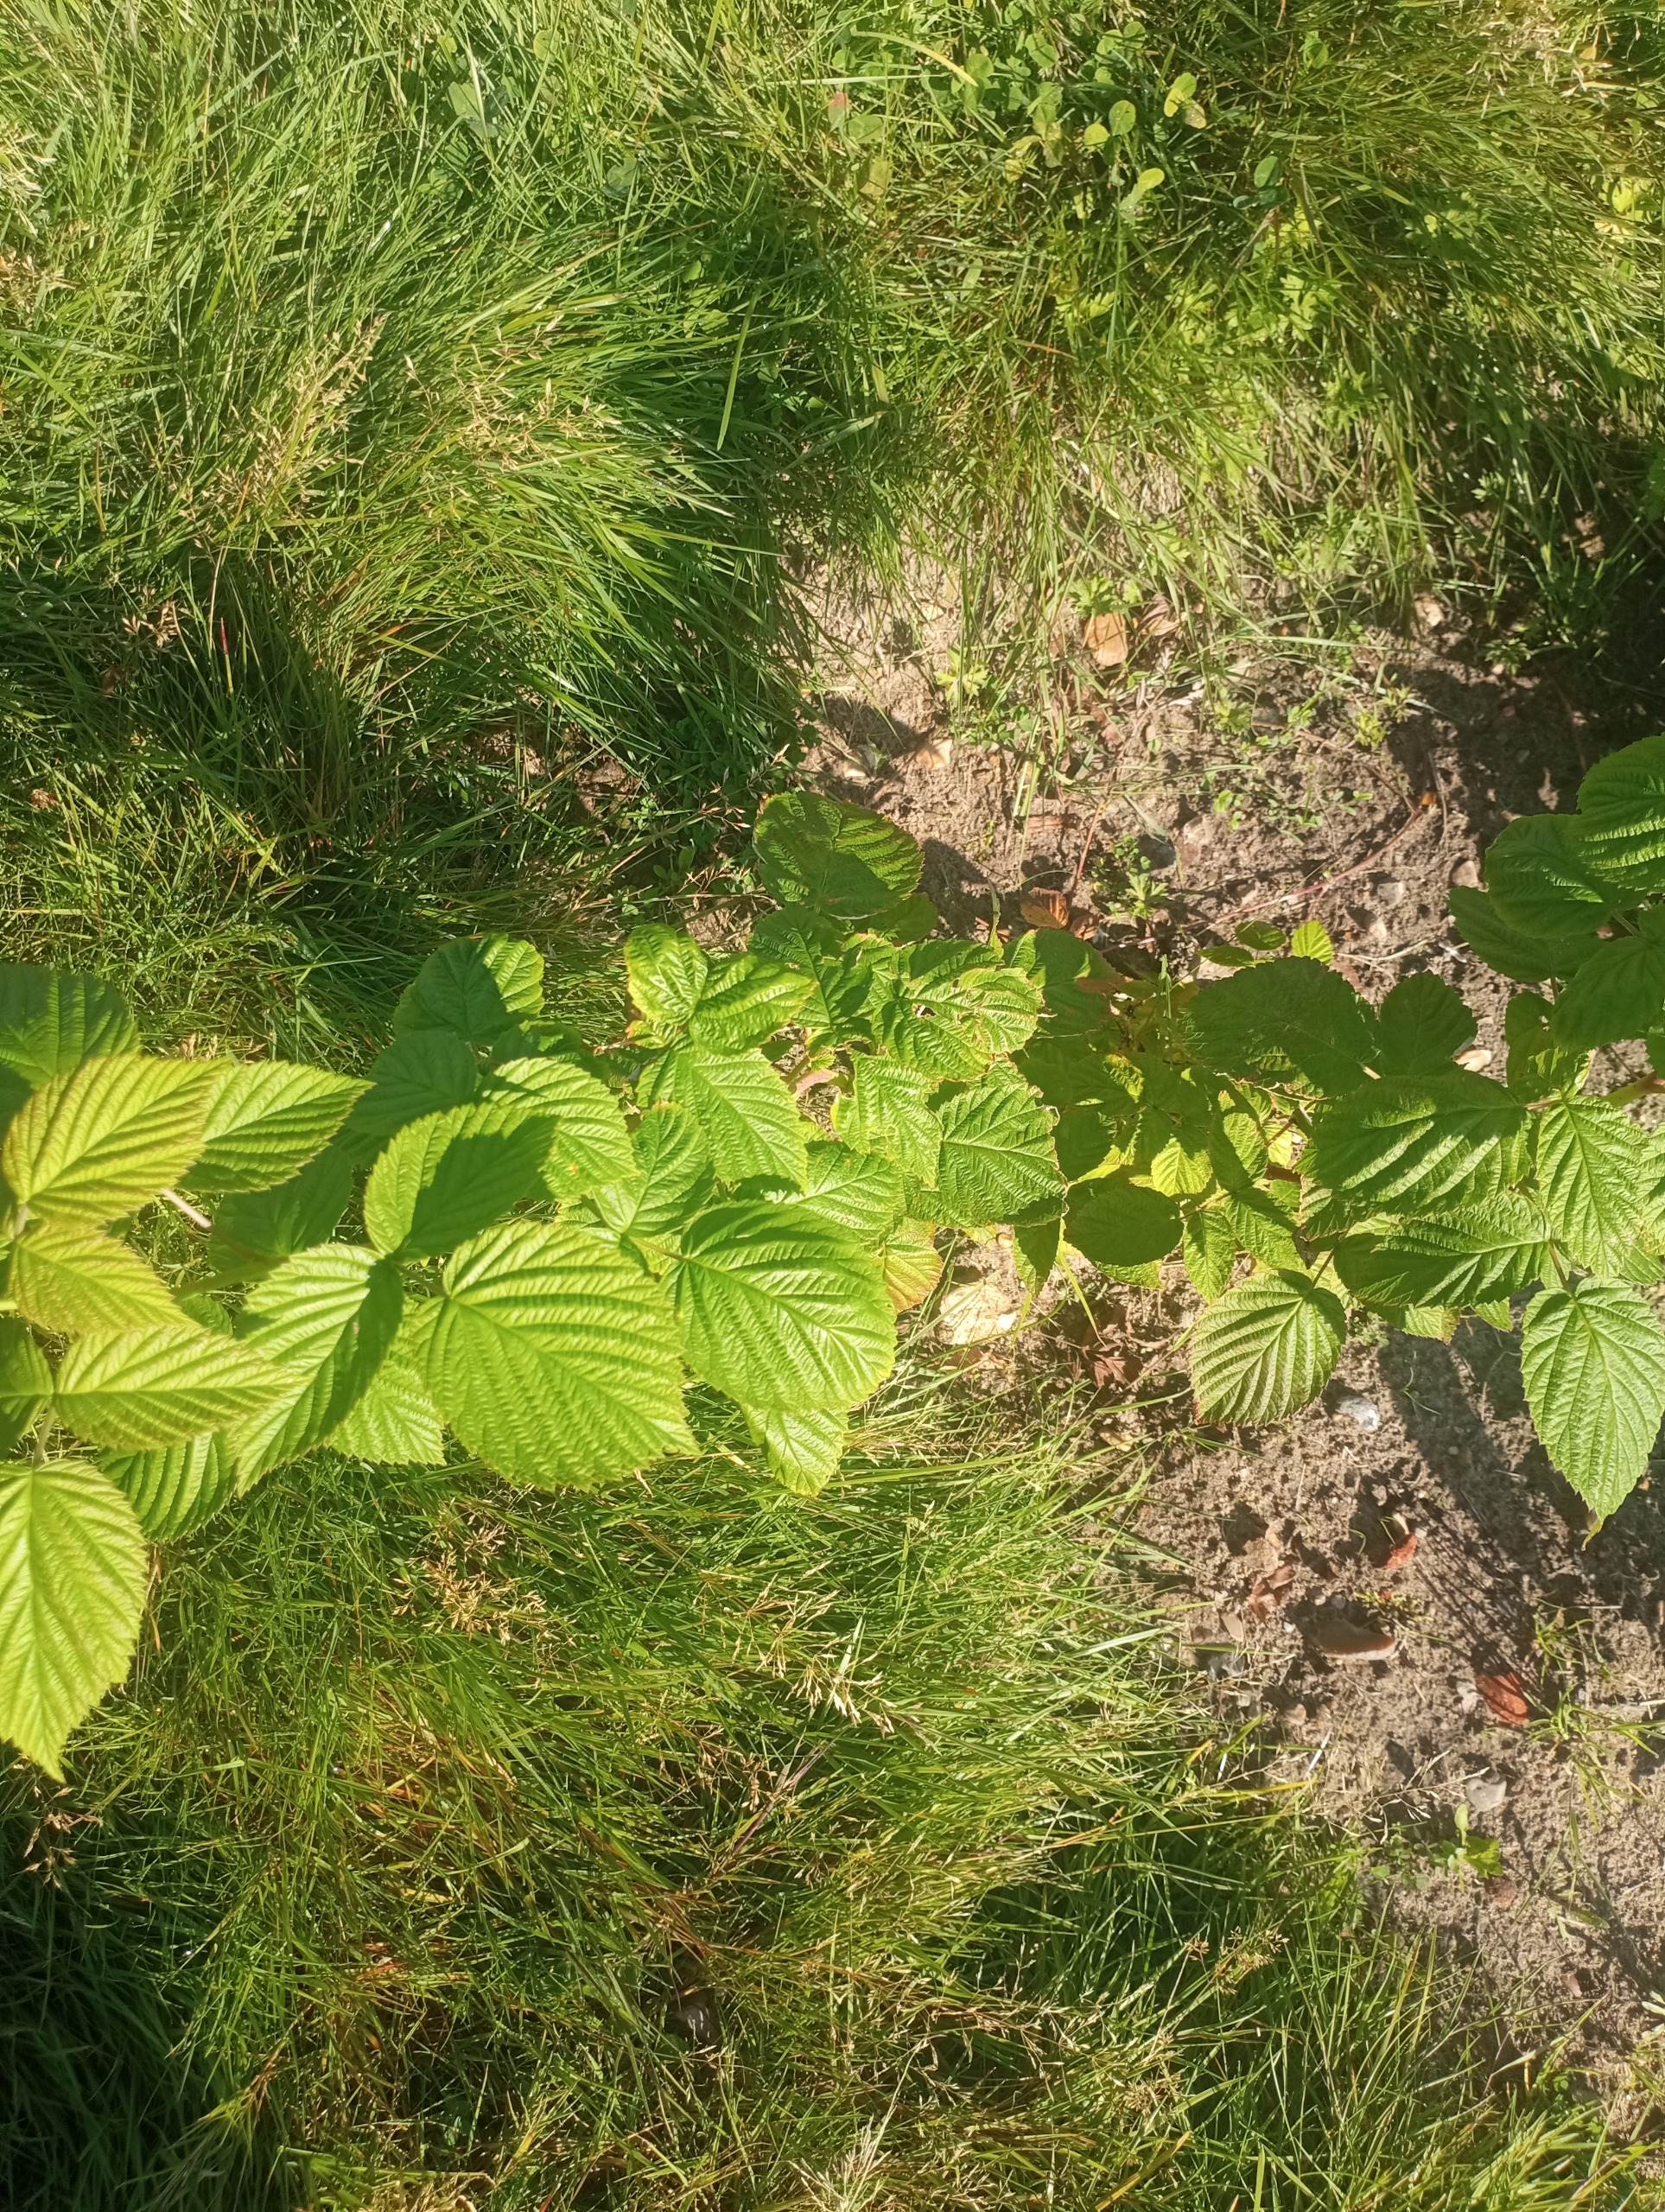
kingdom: Plantae
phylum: Tracheophyta
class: Magnoliopsida
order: Rosales
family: Rosaceae
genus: Rubus
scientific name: Rubus idaeus
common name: Hindbær
